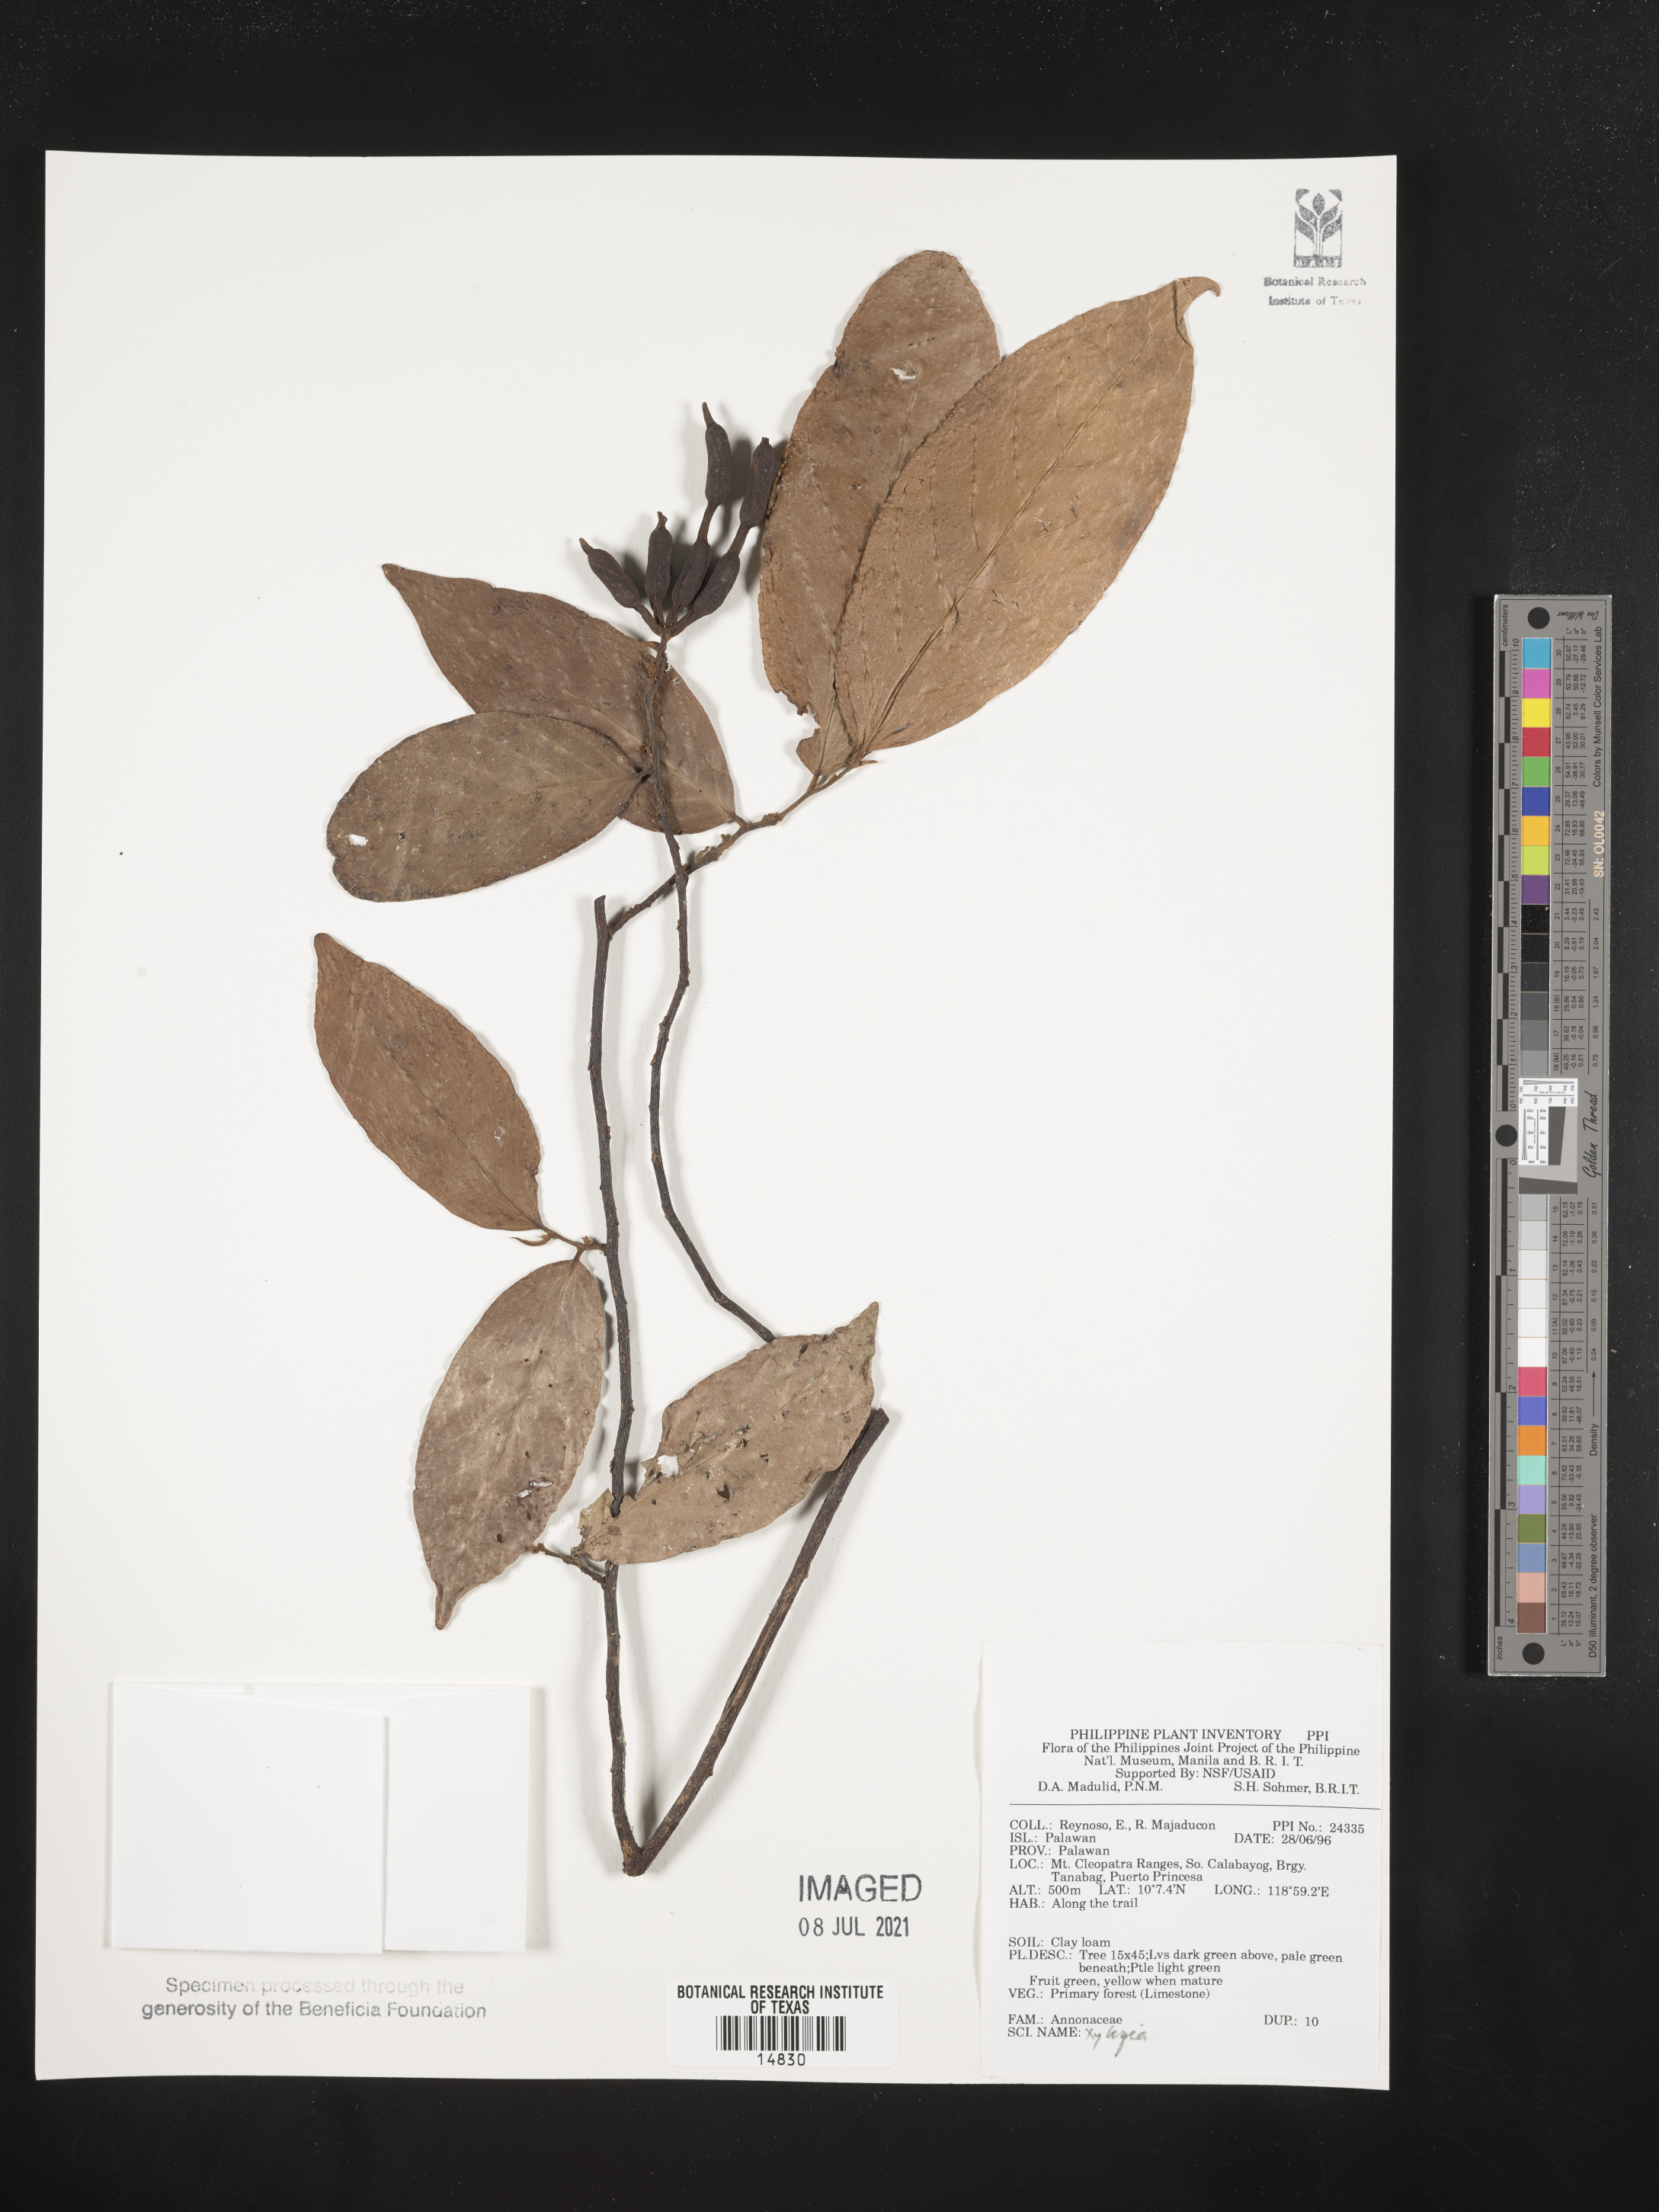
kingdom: Plantae
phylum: Tracheophyta
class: Magnoliopsida
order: Magnoliales
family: Annonaceae
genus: Xylopia
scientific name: Xylopia
